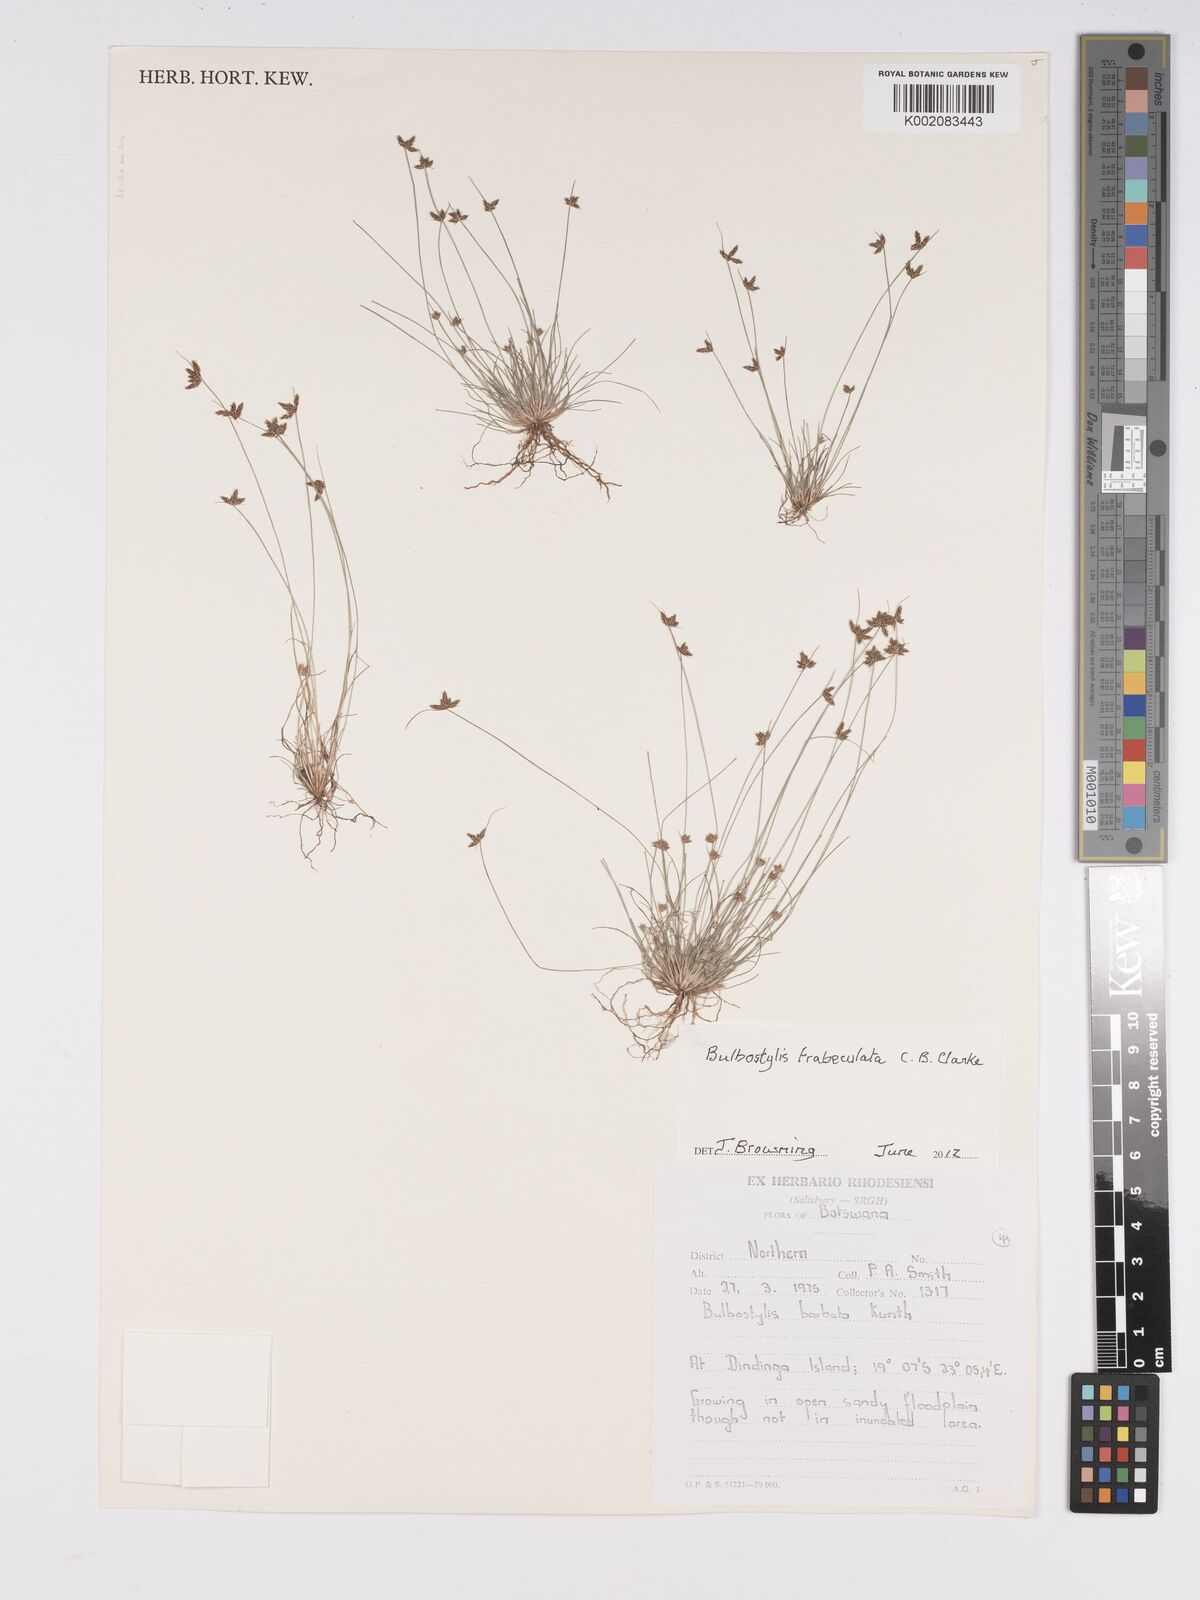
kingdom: Plantae
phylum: Tracheophyta
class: Liliopsida
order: Poales
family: Cyperaceae
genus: Bulbostylis
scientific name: Bulbostylis trabeculata
